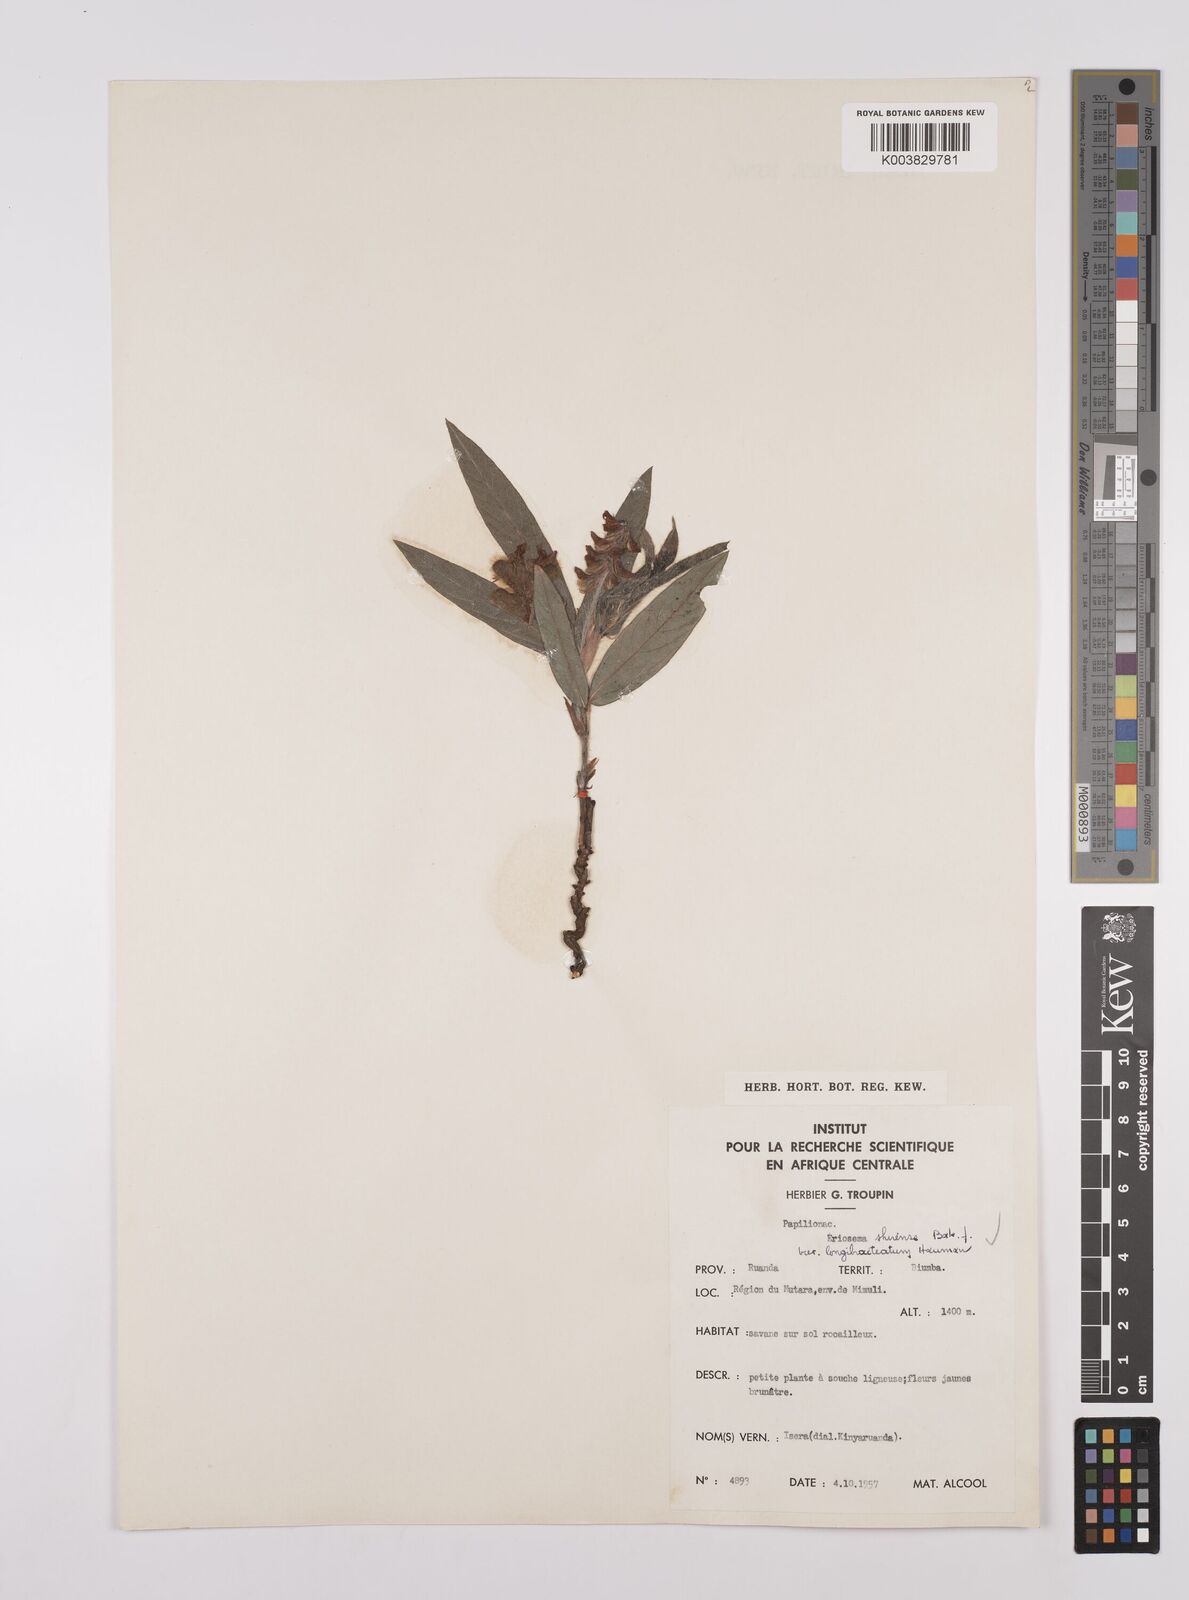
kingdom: Plantae
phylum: Tracheophyta
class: Magnoliopsida
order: Fabales
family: Fabaceae
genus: Eriosema
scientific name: Eriosema shirense
